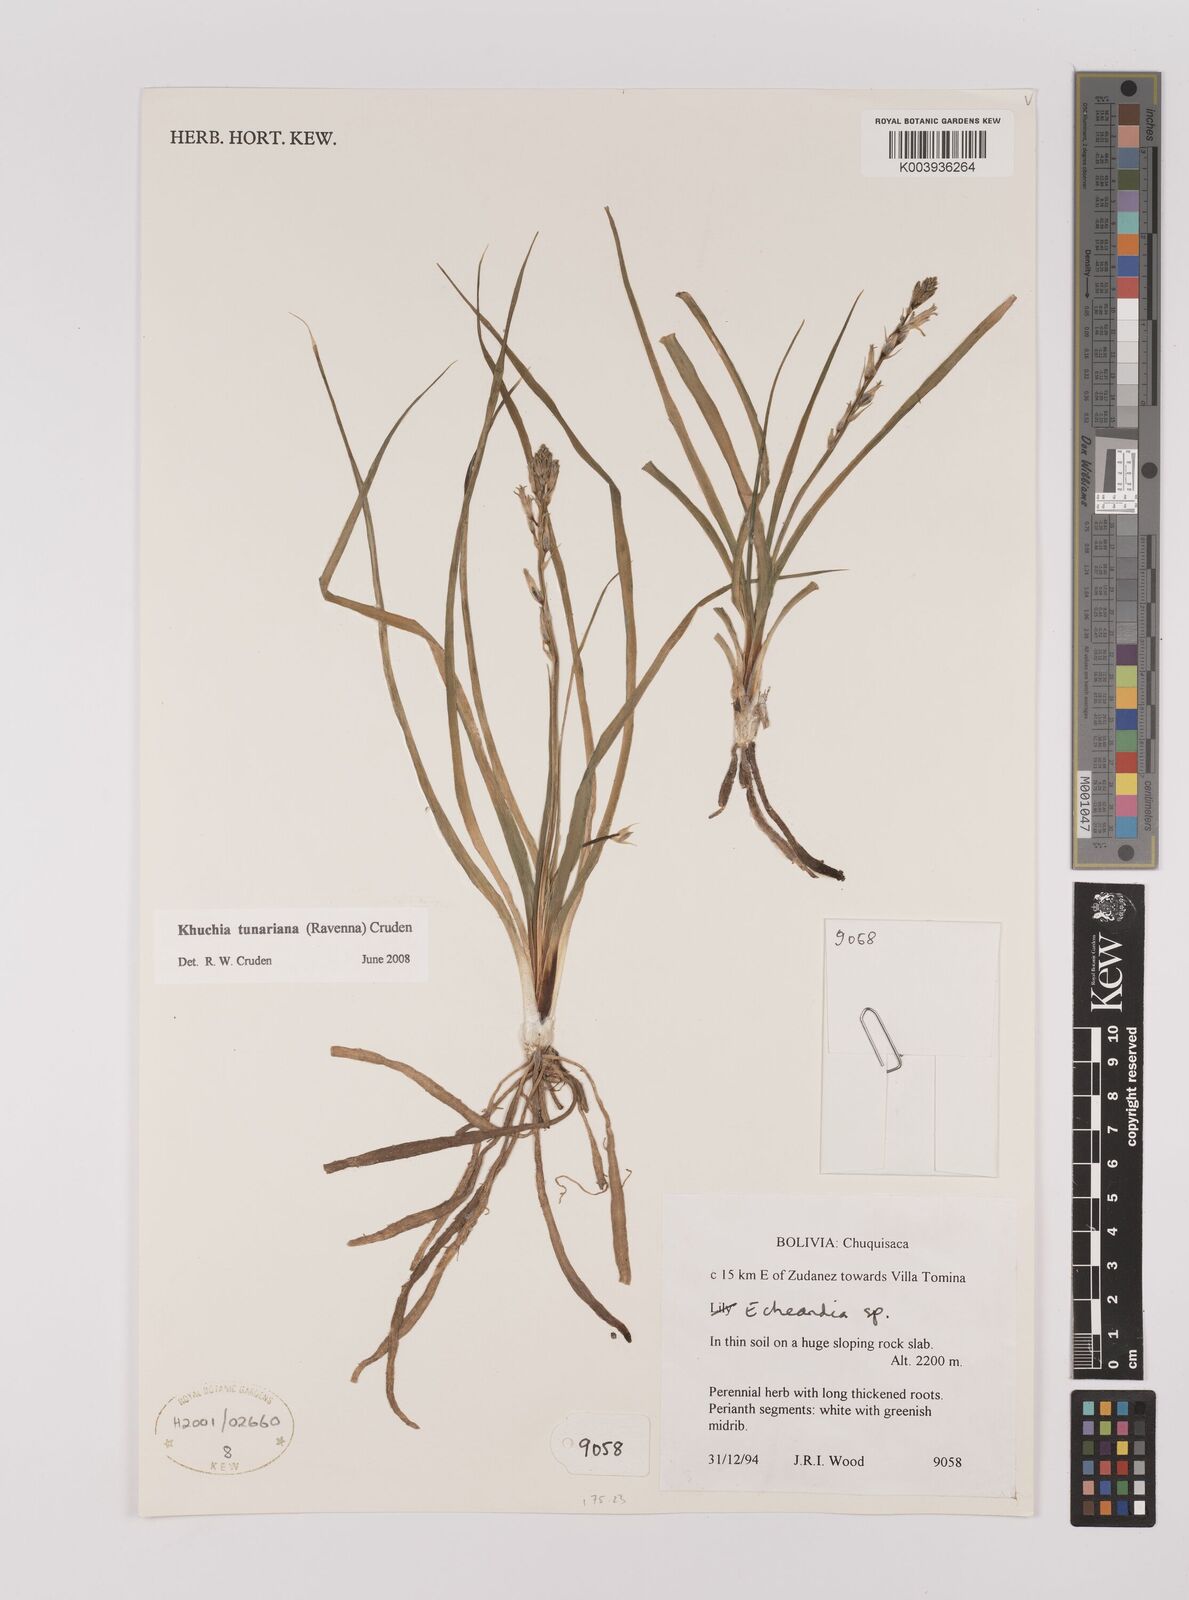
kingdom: Plantae
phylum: Tracheophyta
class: Liliopsida
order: Asparagales
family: Asparagaceae
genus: Echeandia
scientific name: Echeandia
